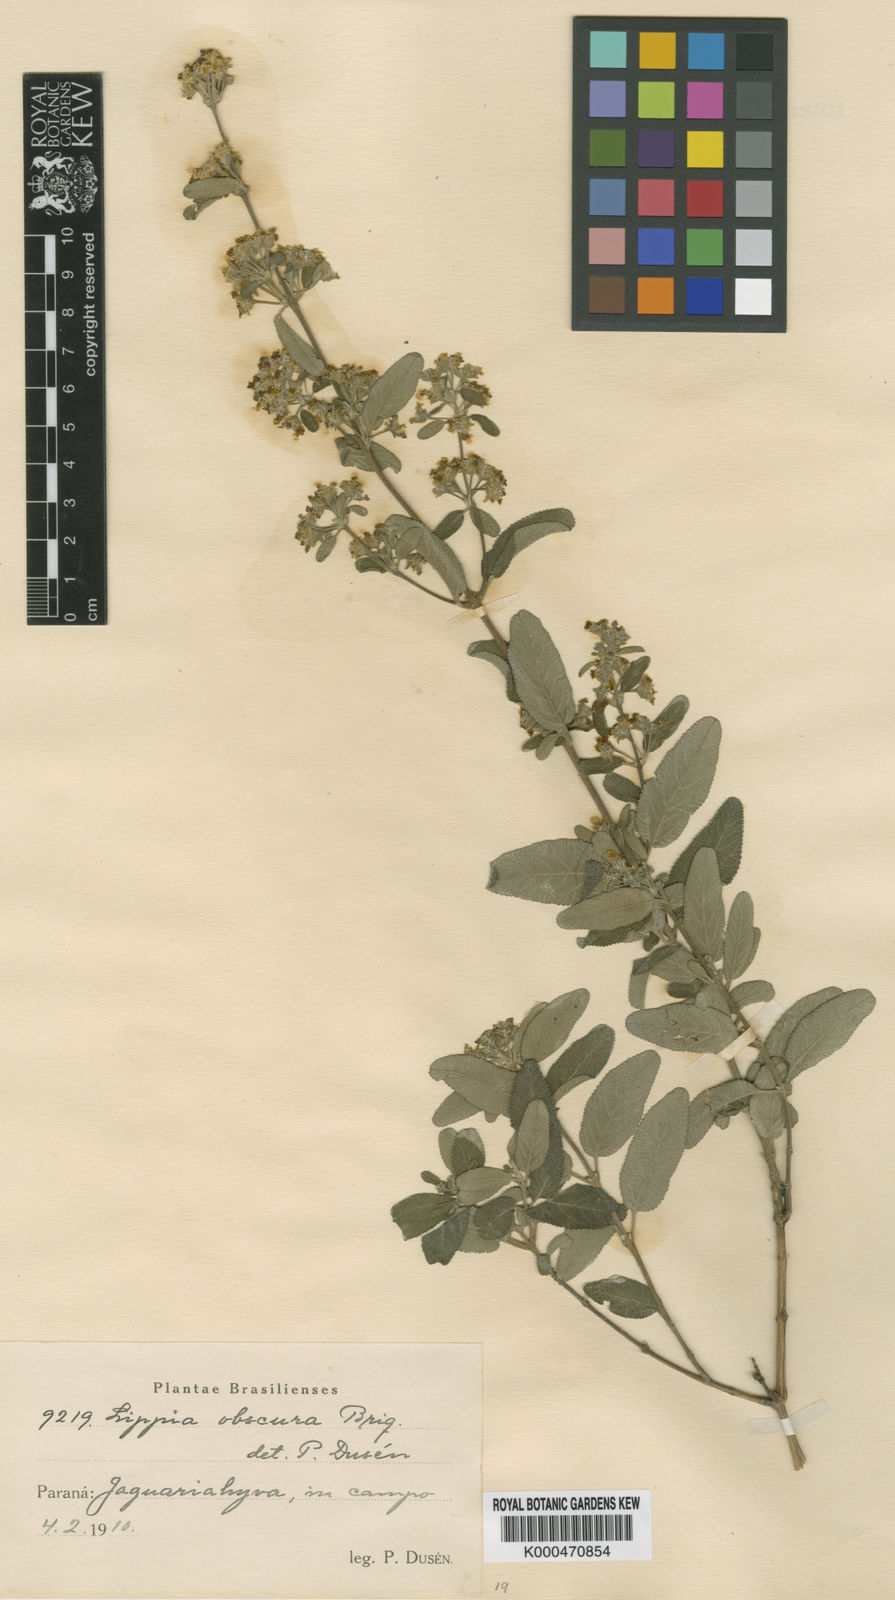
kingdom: Plantae
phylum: Tracheophyta
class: Magnoliopsida
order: Lamiales
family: Verbenaceae
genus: Lippia
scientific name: Lippia origanoides
